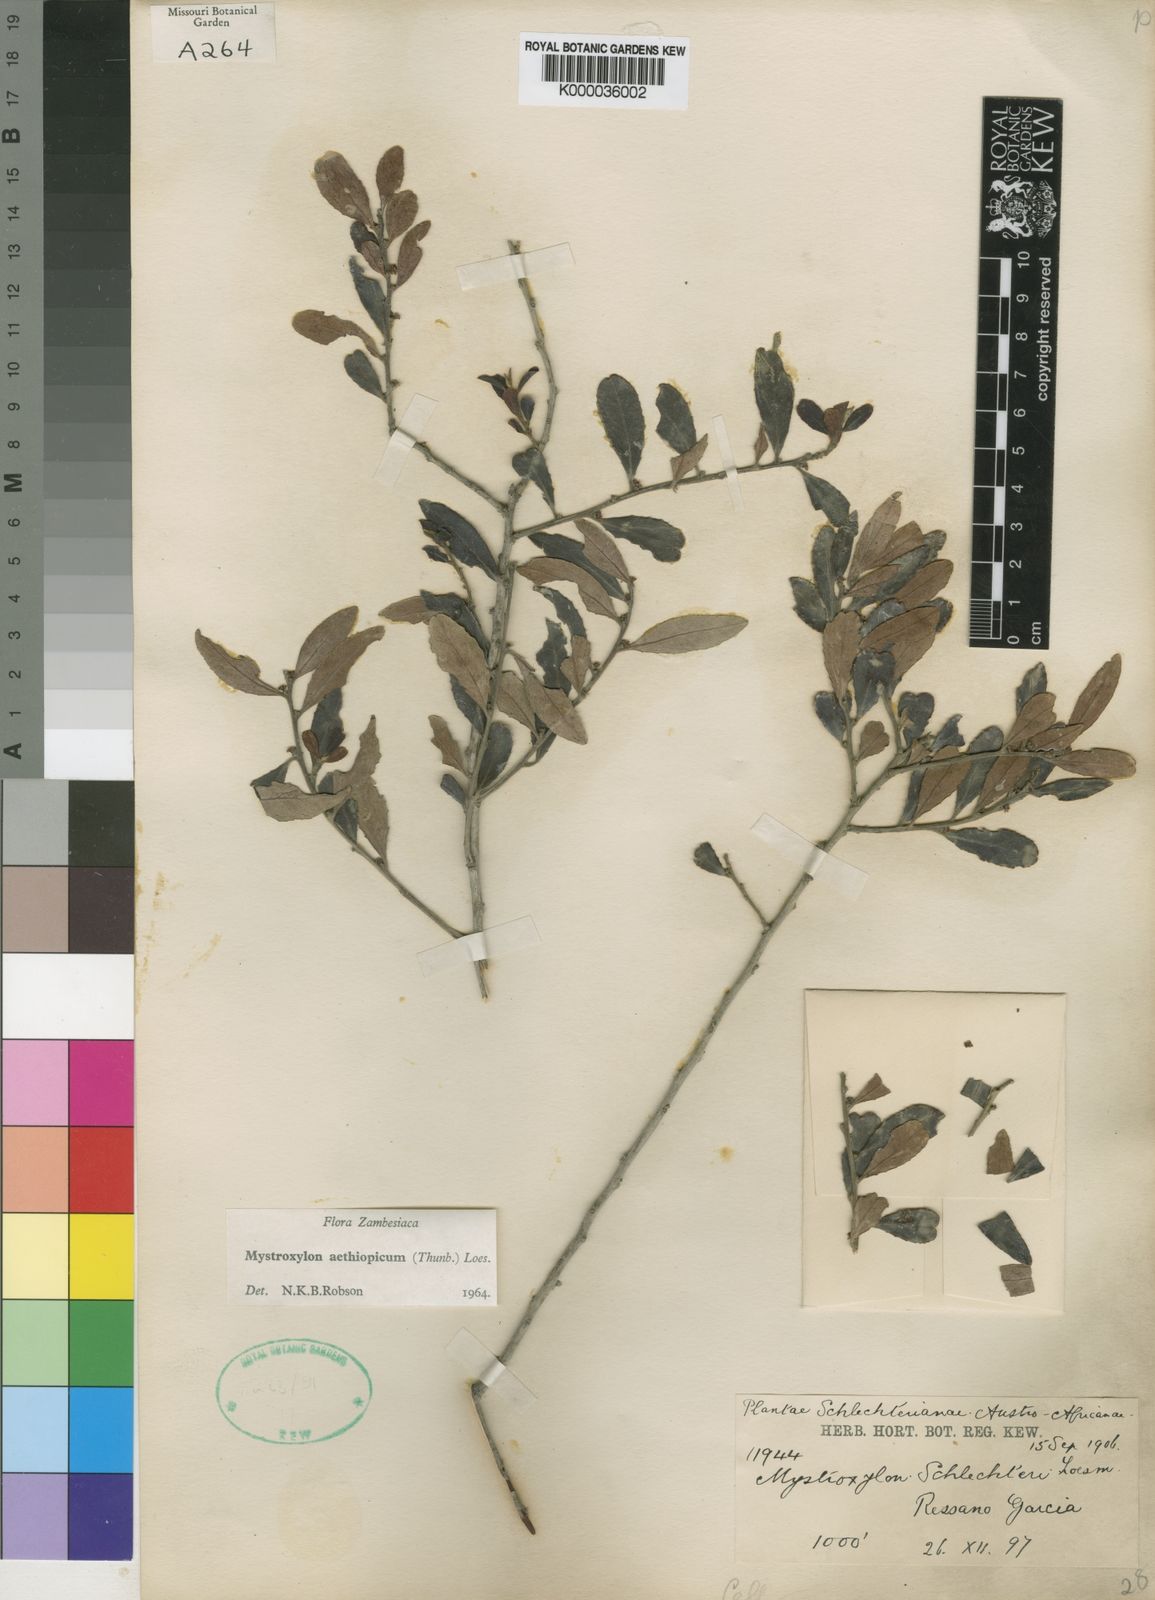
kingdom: Plantae
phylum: Tracheophyta
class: Magnoliopsida
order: Celastrales
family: Celastraceae
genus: Mystroxylon
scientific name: Mystroxylon aethiopicum
